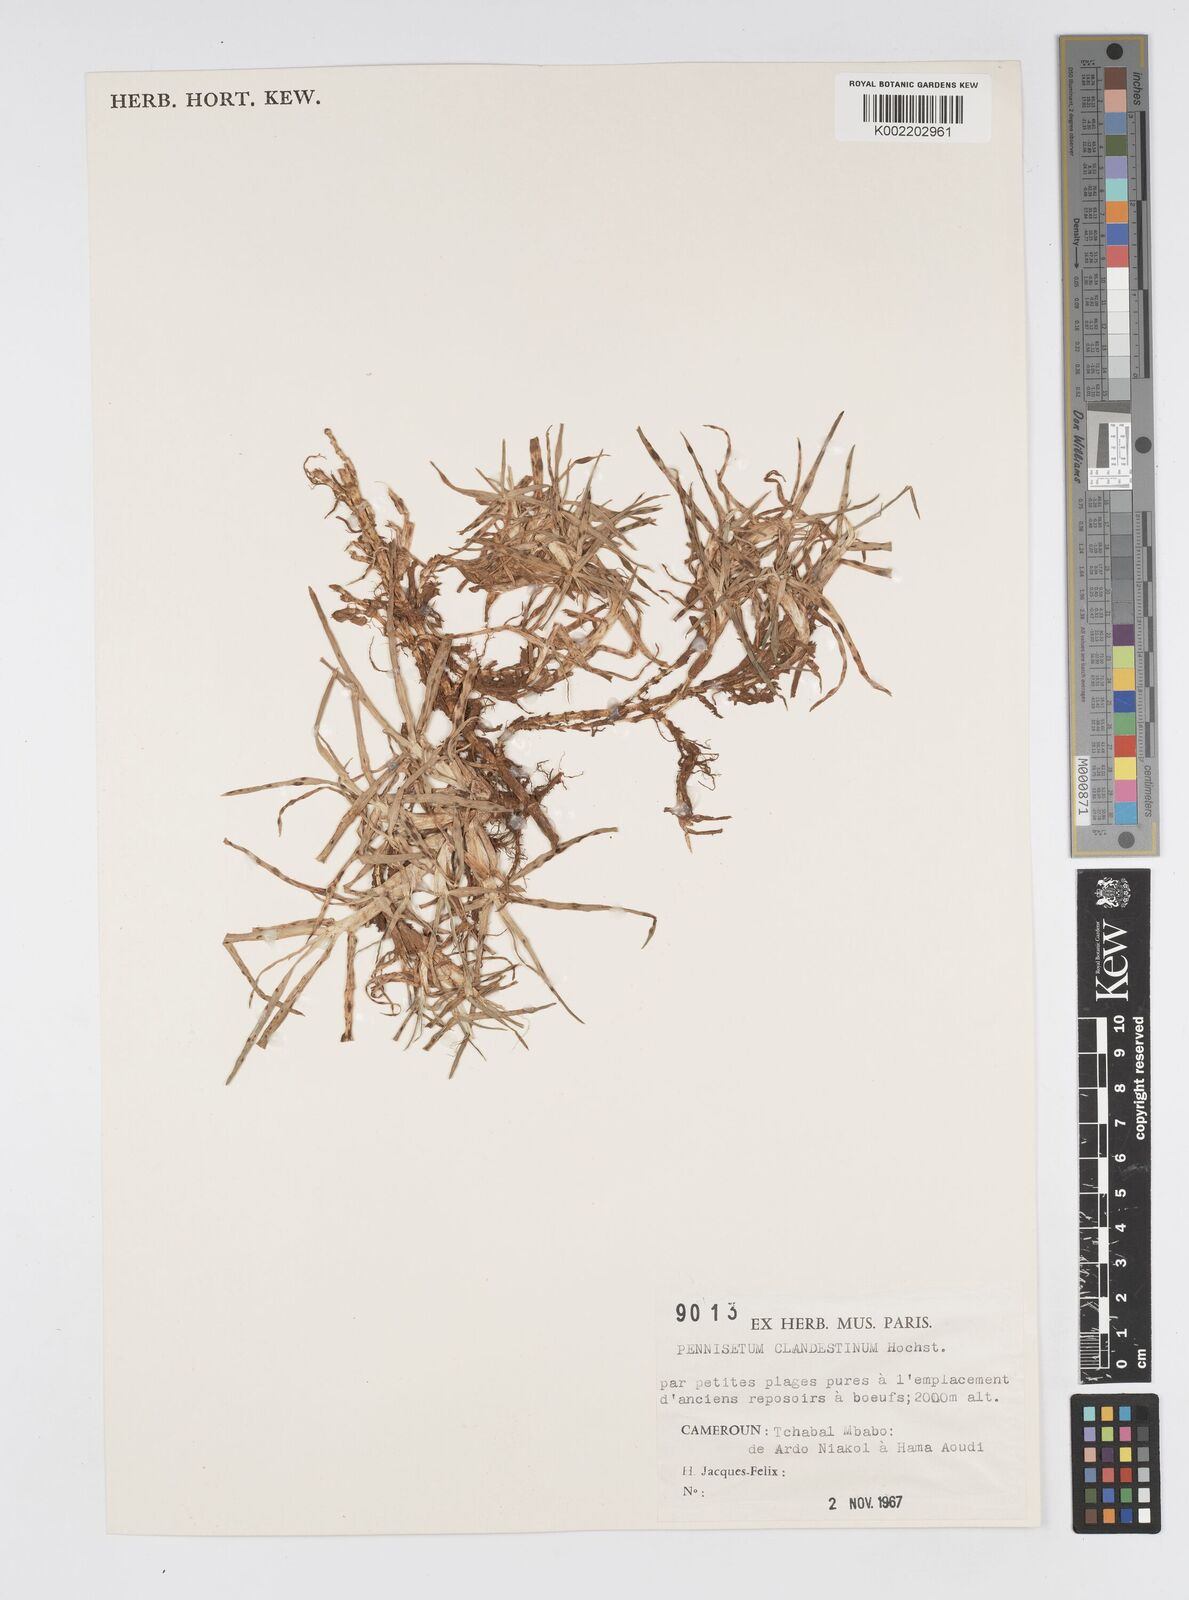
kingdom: Plantae
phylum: Tracheophyta
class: Liliopsida
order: Poales
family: Poaceae
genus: Cenchrus
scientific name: Cenchrus clandestinus
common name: Kikuyugrass
